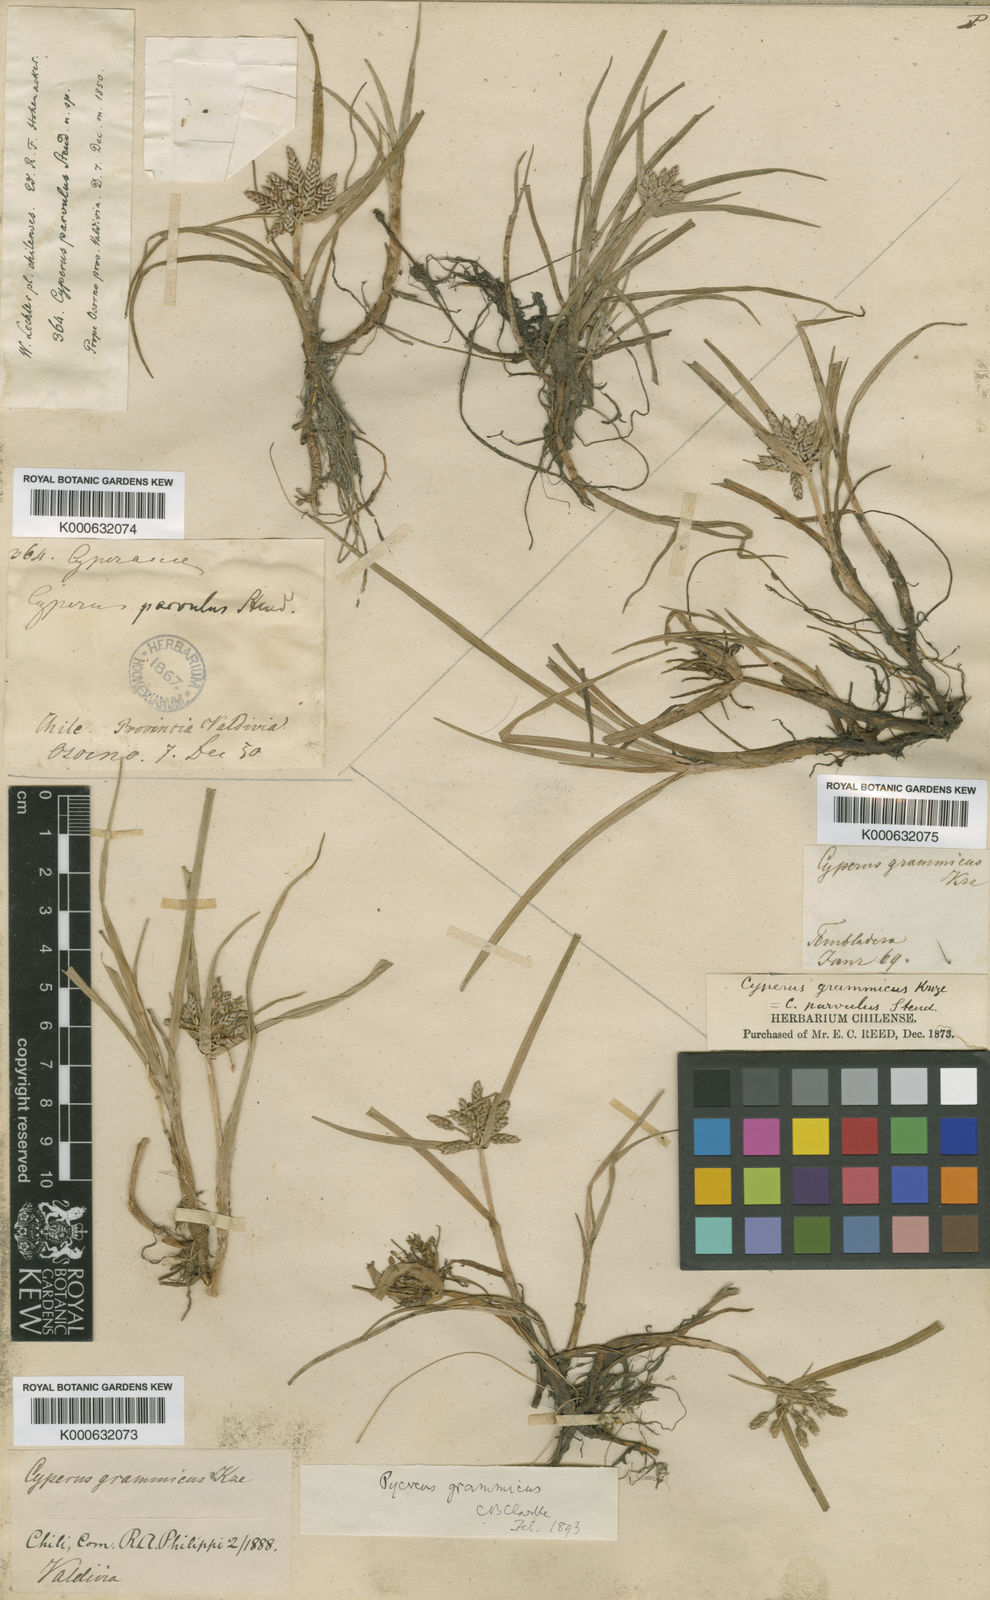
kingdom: Plantae
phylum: Tracheophyta
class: Liliopsida
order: Poales
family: Cyperaceae
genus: Cyperus
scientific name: Cyperus grammicus
